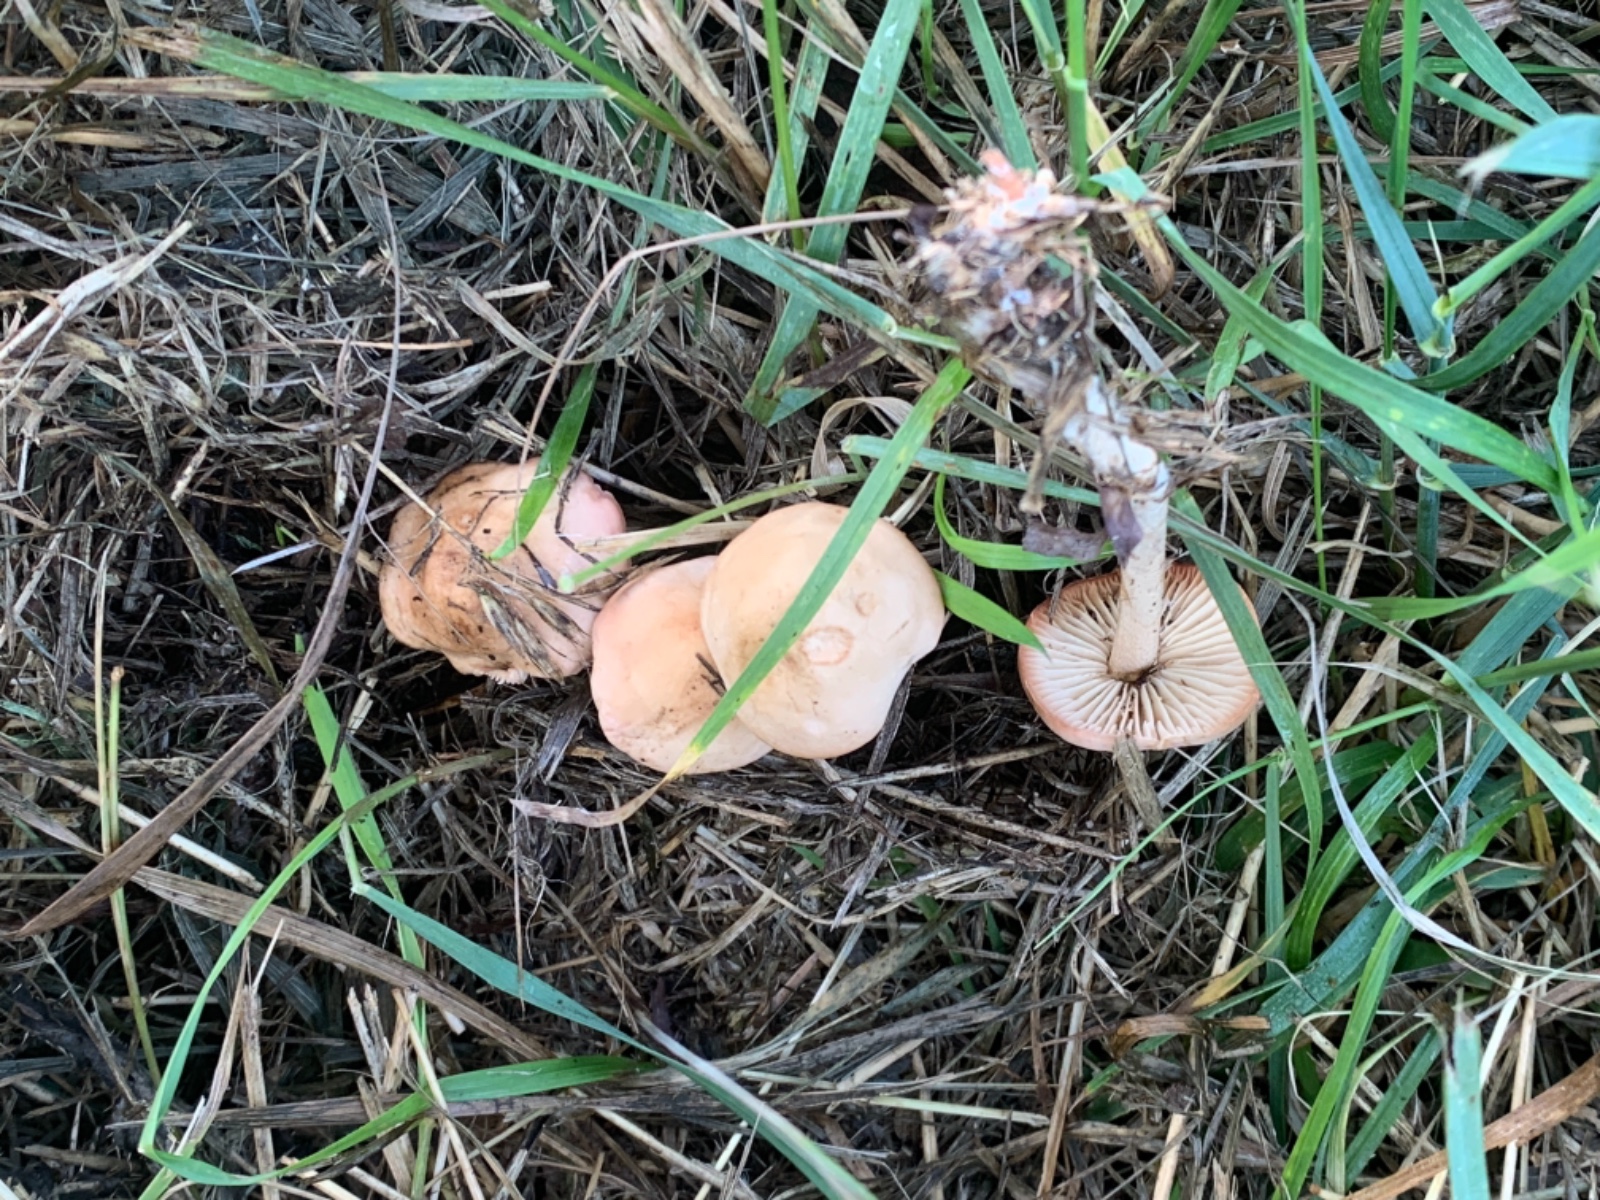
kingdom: Fungi
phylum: Basidiomycota
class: Agaricomycetes
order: Agaricales
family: Marasmiaceae
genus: Marasmius
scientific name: Marasmius oreades
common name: elledans-bruskhat
